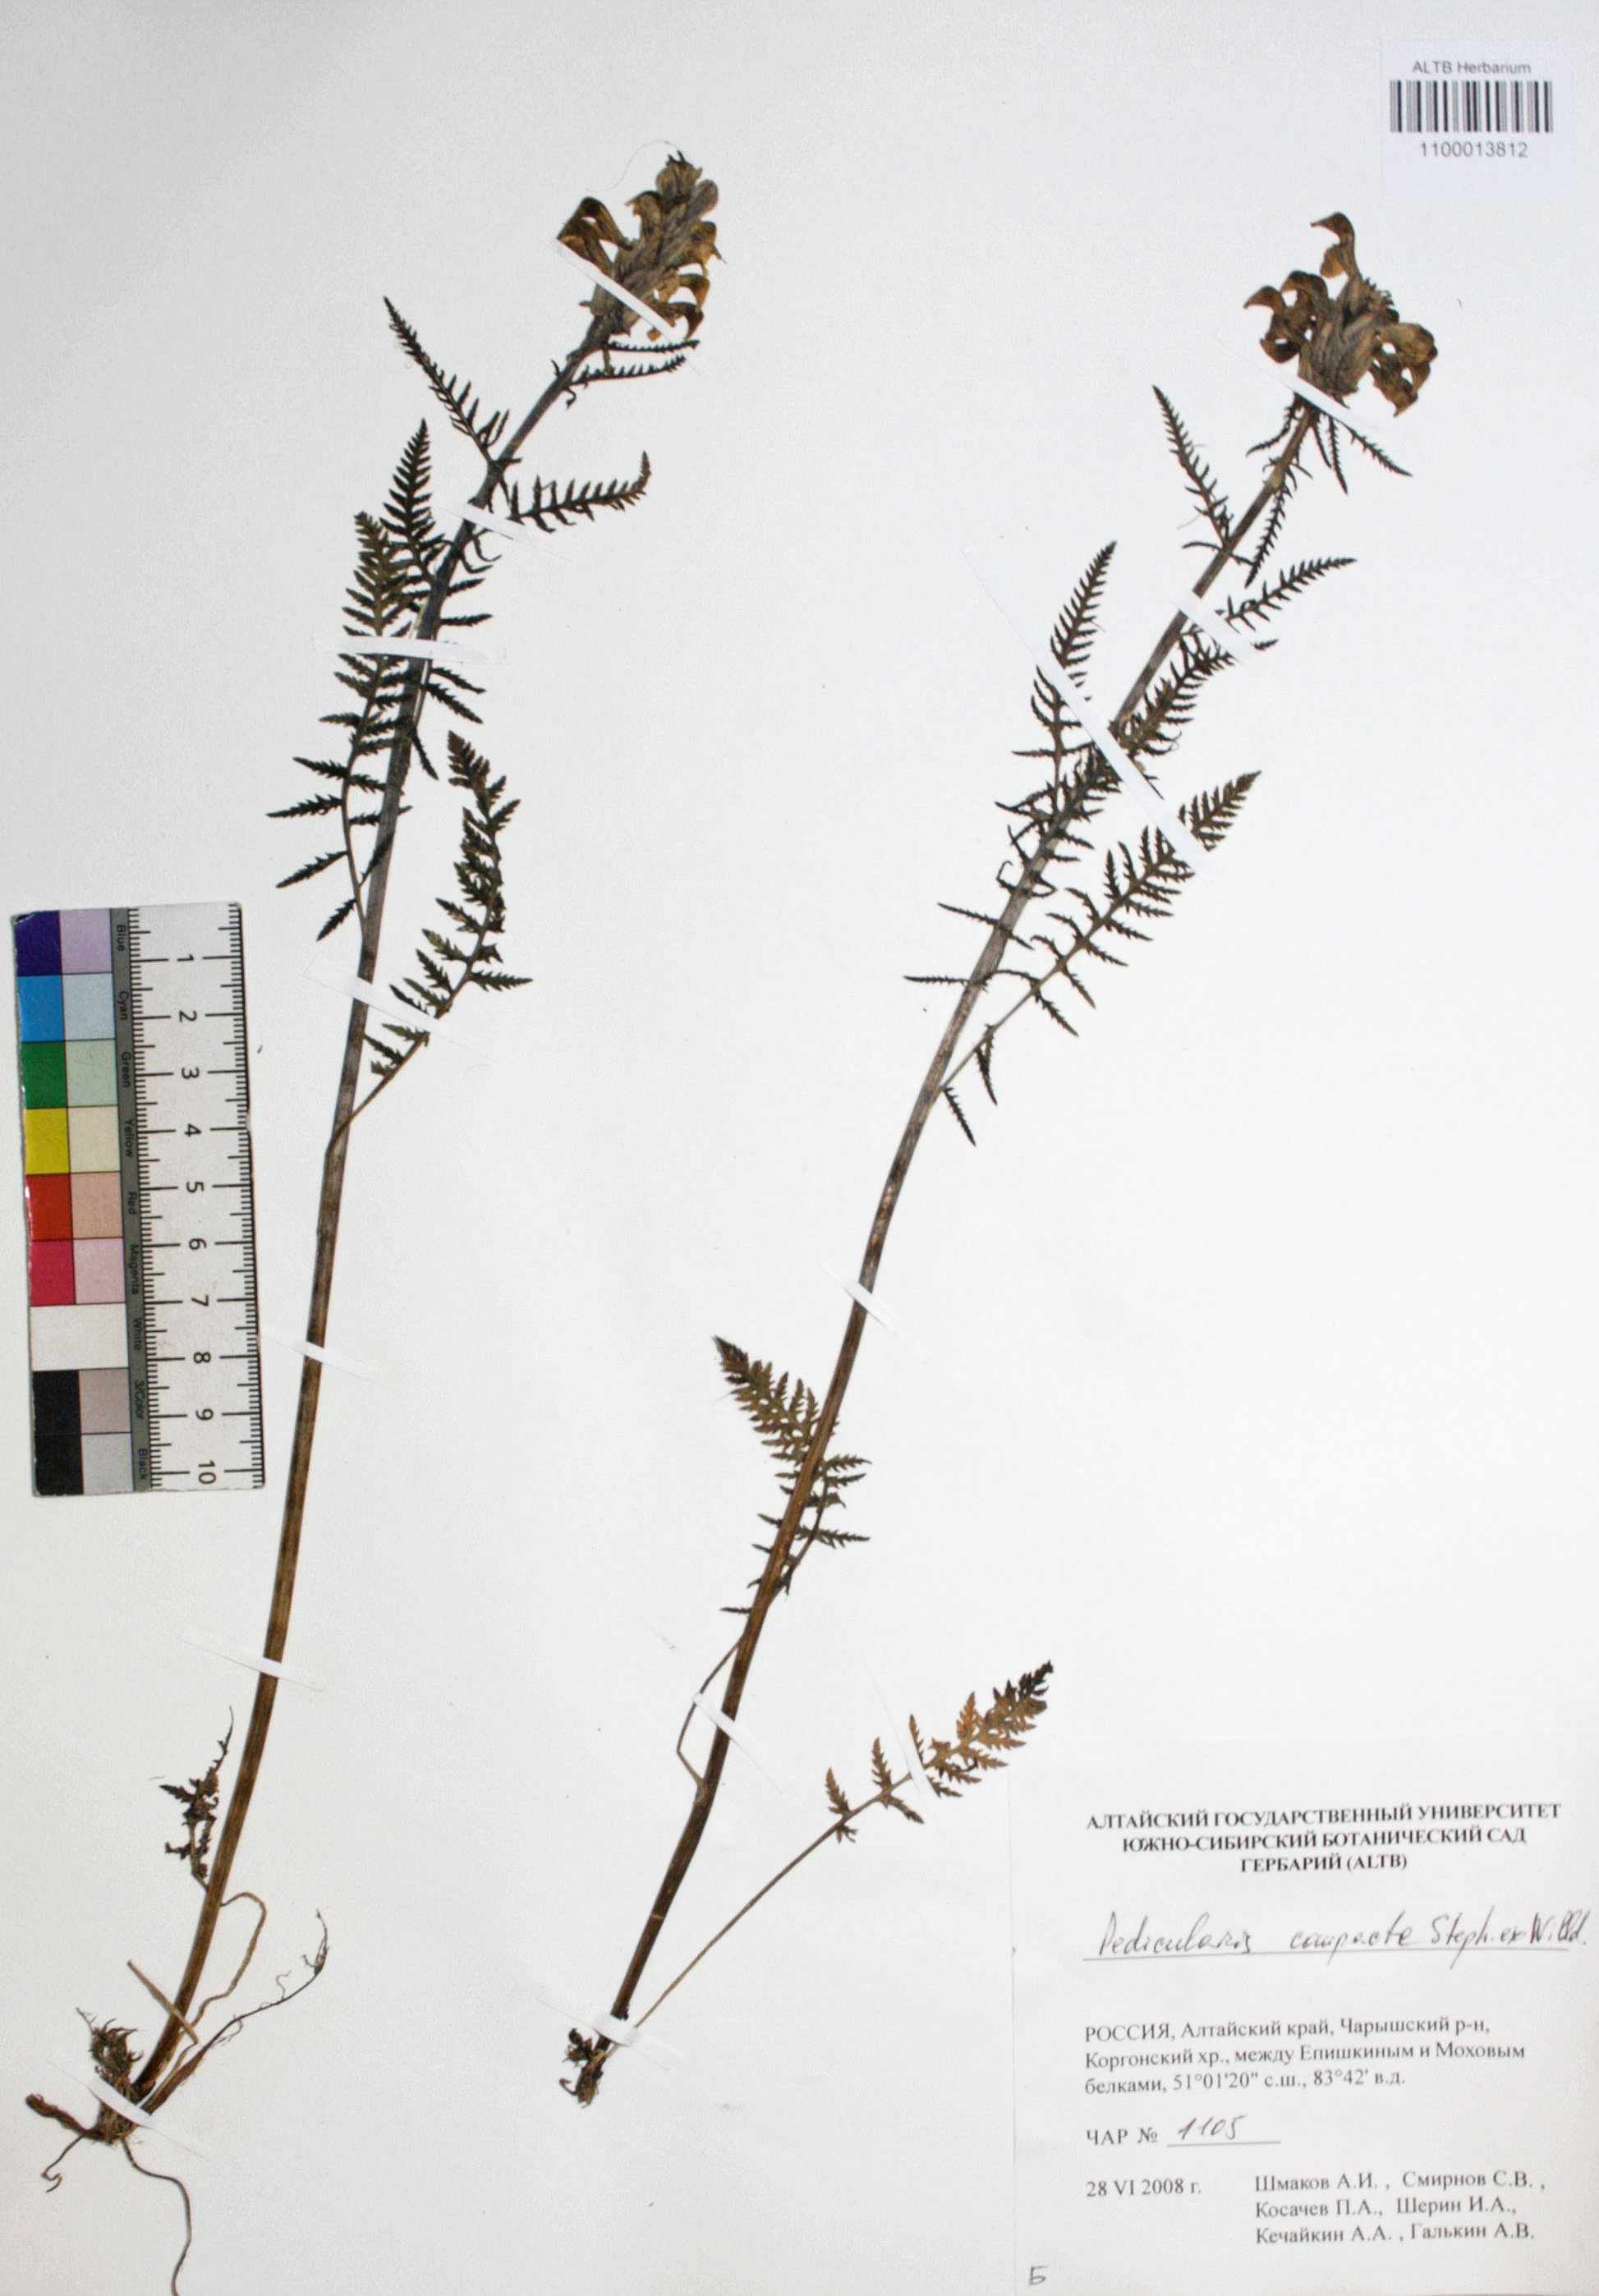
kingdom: Plantae
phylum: Tracheophyta
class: Magnoliopsida
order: Lamiales
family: Orobanchaceae
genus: Pedicularis
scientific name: Pedicularis compacta
